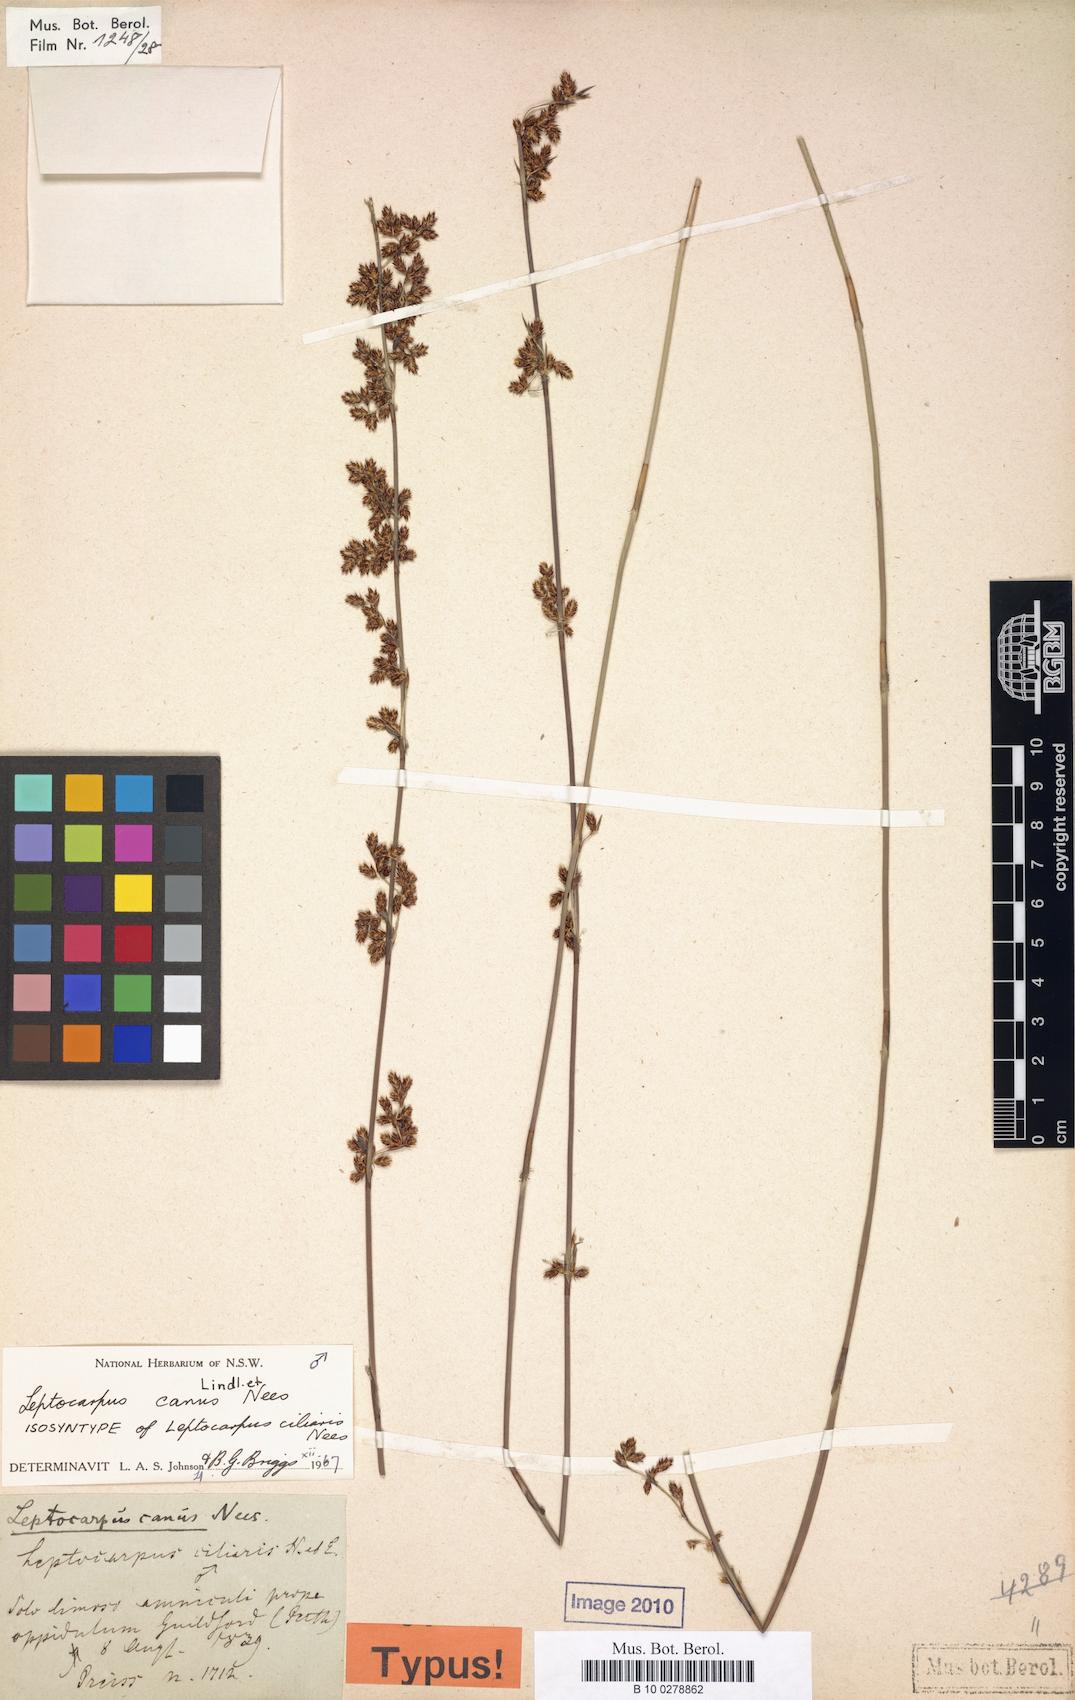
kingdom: Plantae
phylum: Tracheophyta
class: Liliopsida
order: Poales
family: Restionaceae
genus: Leptocarpus
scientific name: Leptocarpus canus
